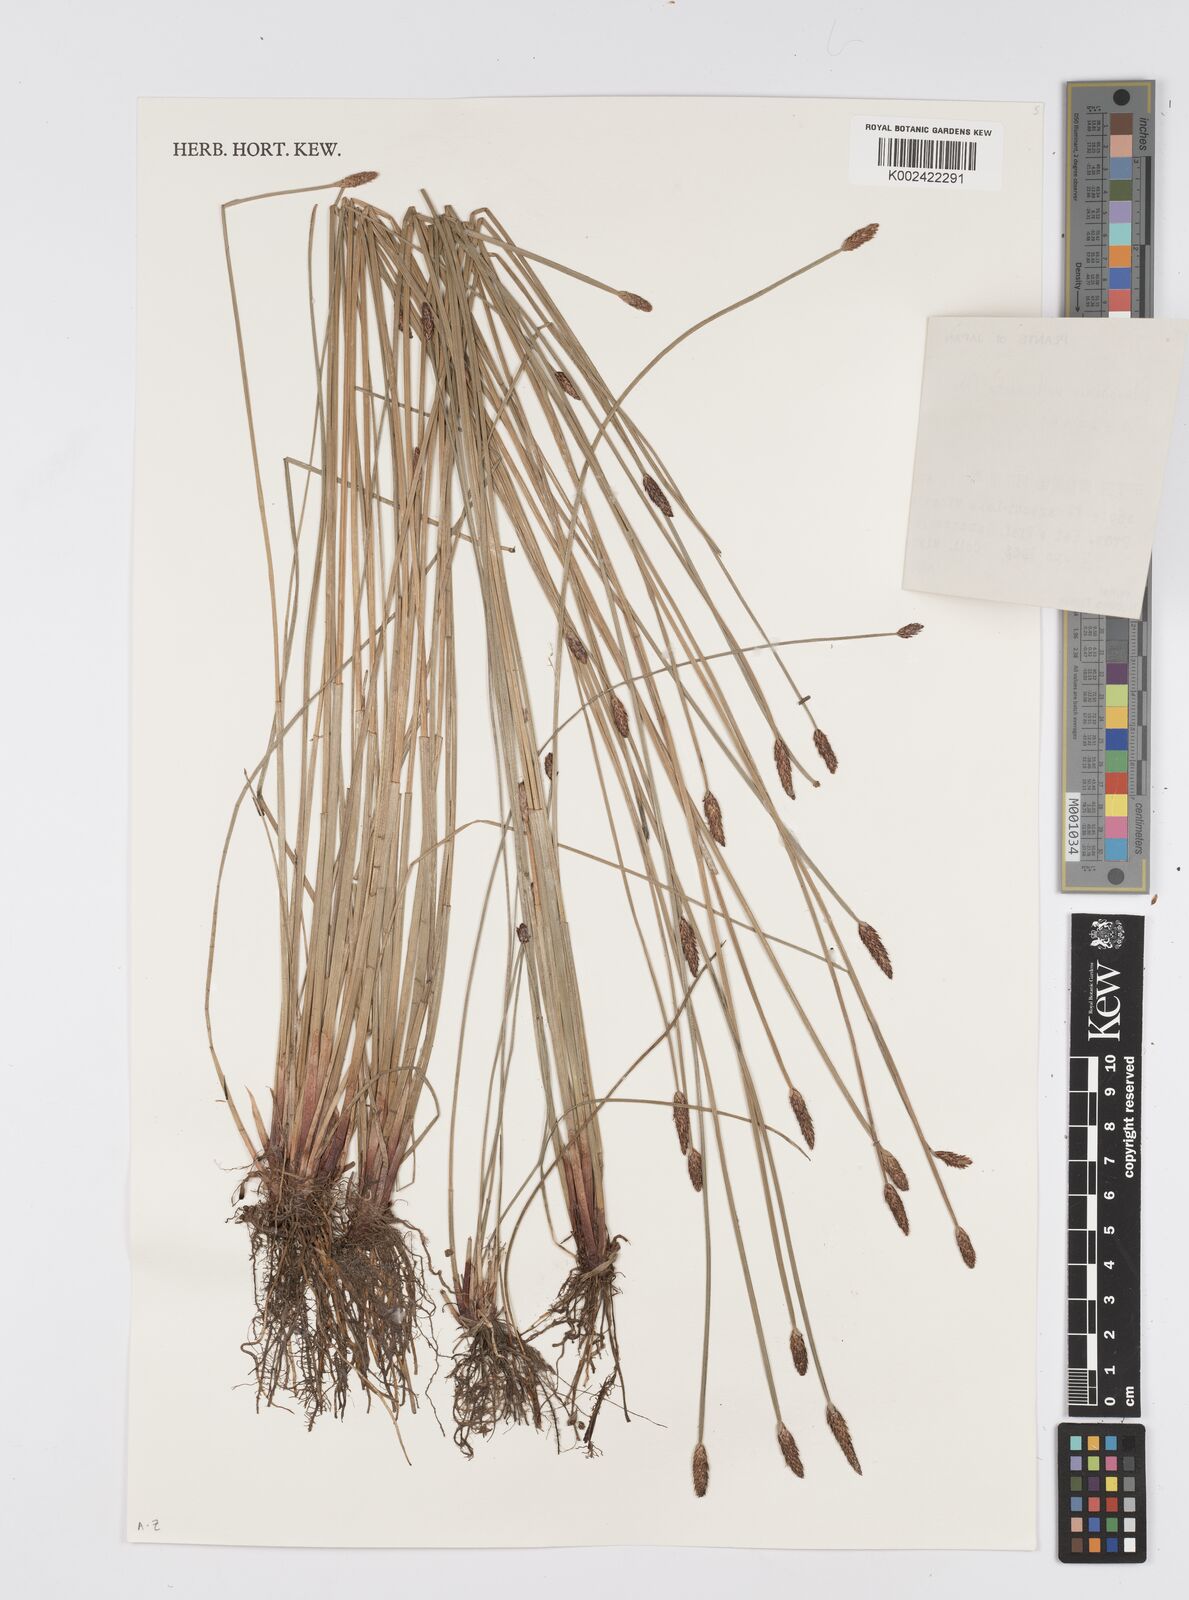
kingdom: Plantae
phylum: Tracheophyta
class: Liliopsida
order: Poales
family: Cyperaceae
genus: Eleocharis
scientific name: Eleocharis valleculosa
